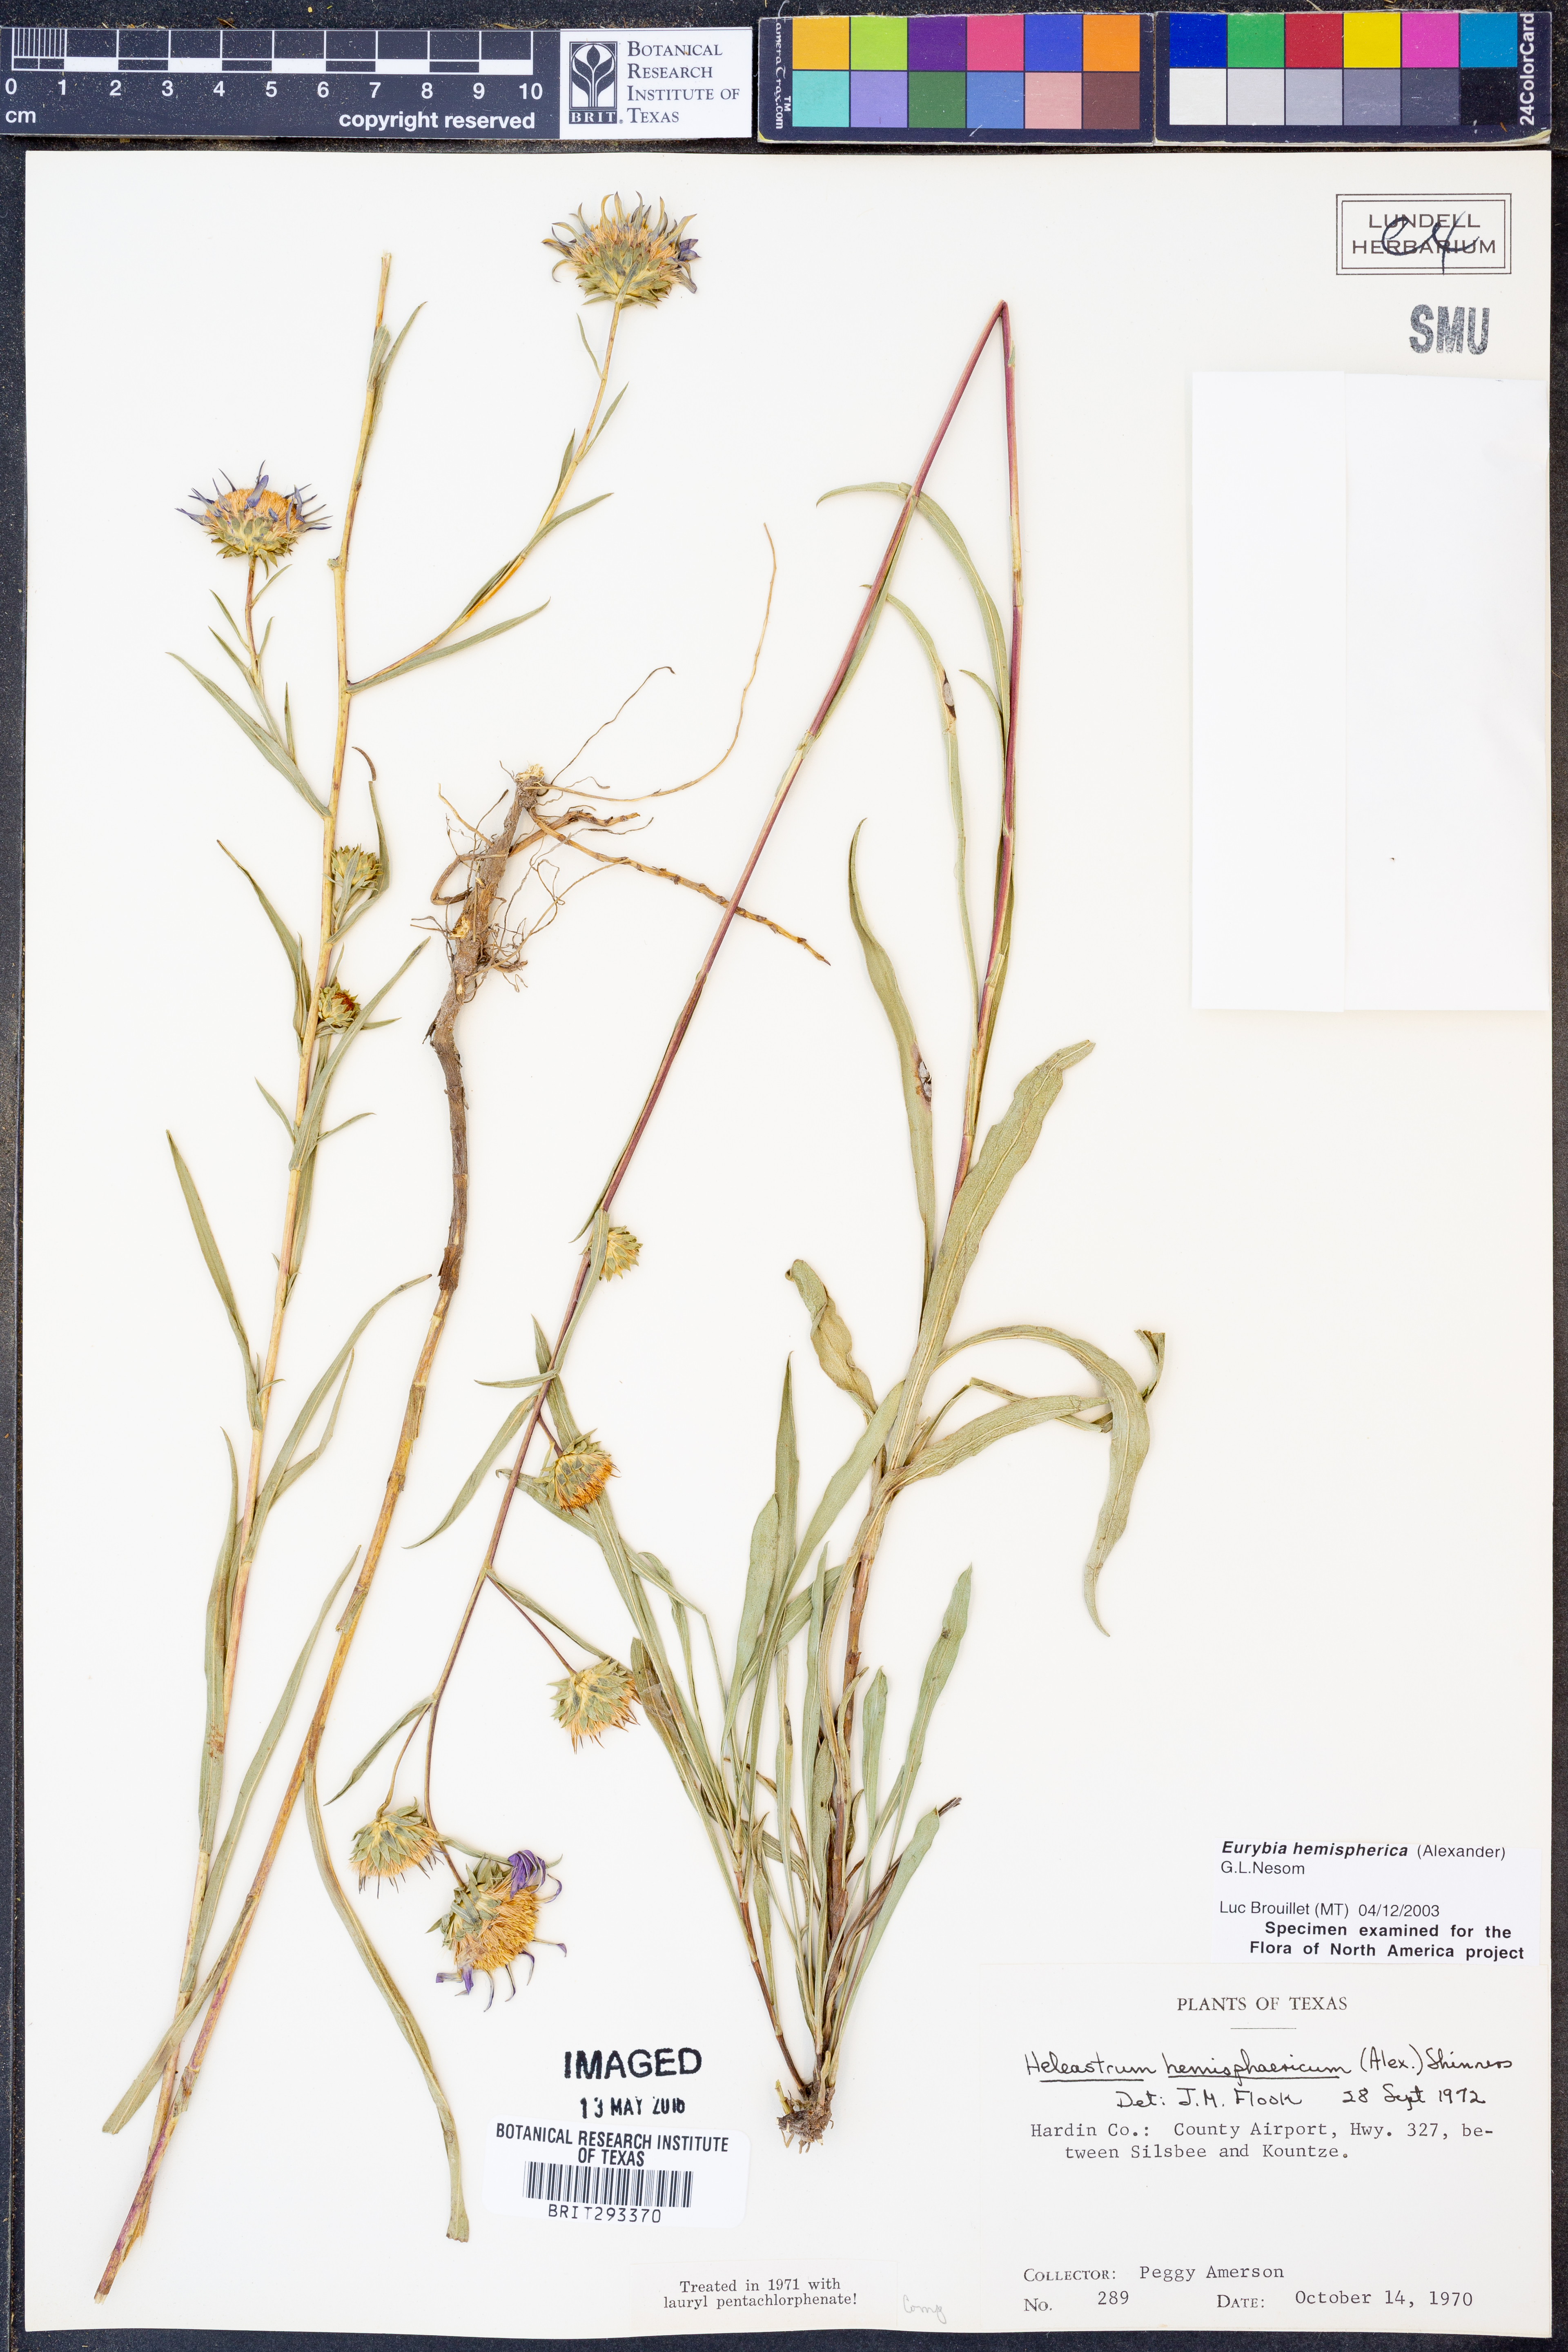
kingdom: Plantae
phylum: Tracheophyta
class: Magnoliopsida
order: Asterales
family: Asteraceae
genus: Eurybia
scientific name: Eurybia hemispherica
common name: Showy aster
